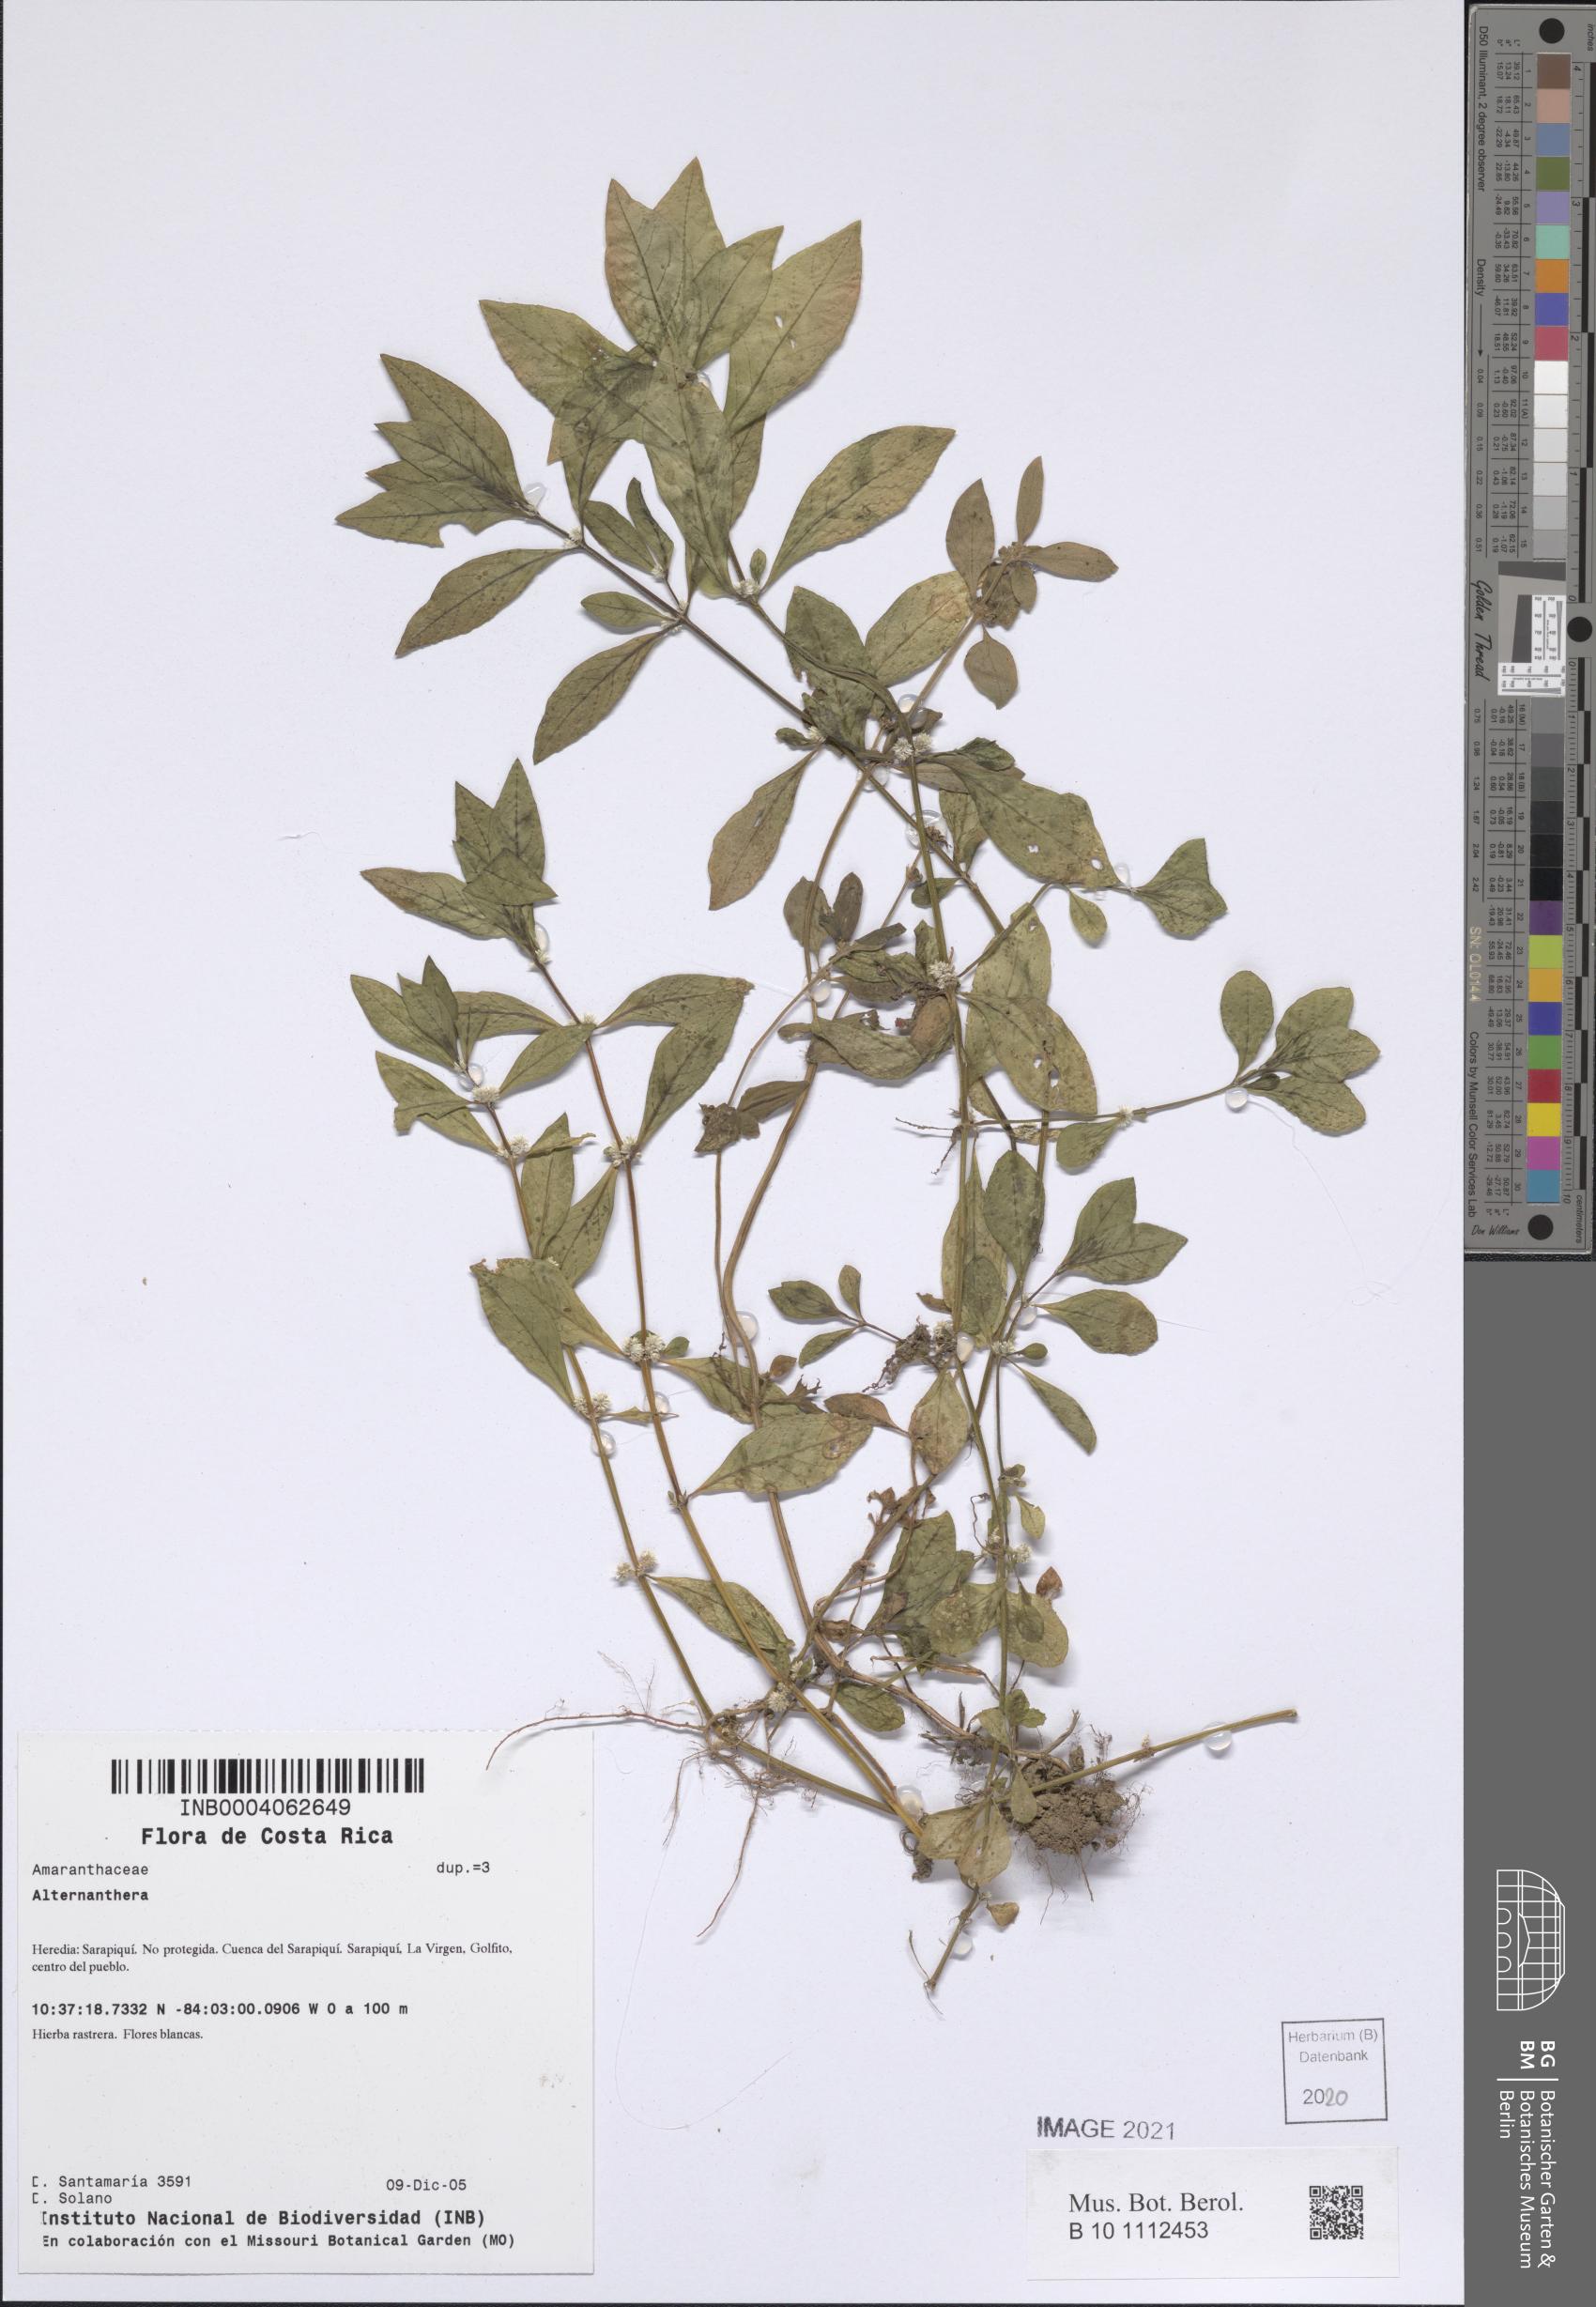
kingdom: Plantae
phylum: Tracheophyta
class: Magnoliopsida
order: Caryophyllales
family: Amaranthaceae
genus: Alternanthera
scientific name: Alternanthera
